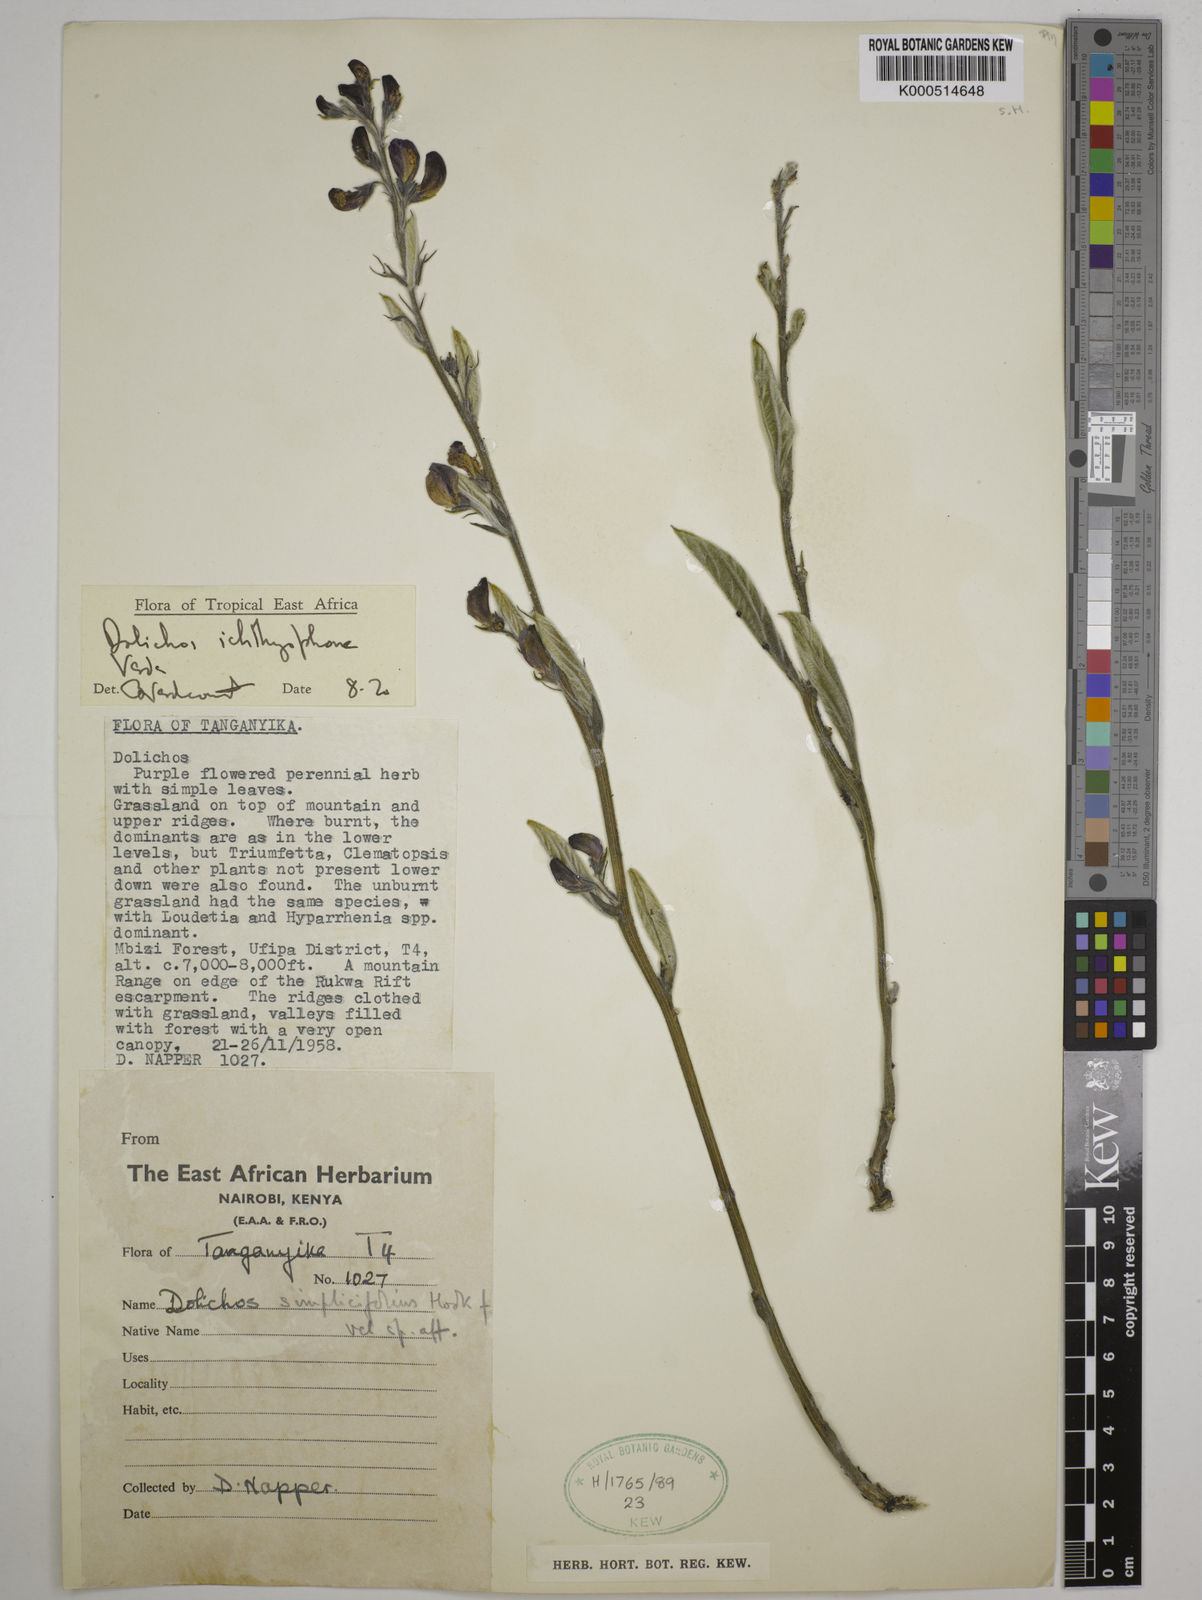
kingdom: Plantae
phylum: Tracheophyta
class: Magnoliopsida
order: Fabales
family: Fabaceae
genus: Dolichos
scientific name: Dolichos ichthyophone
